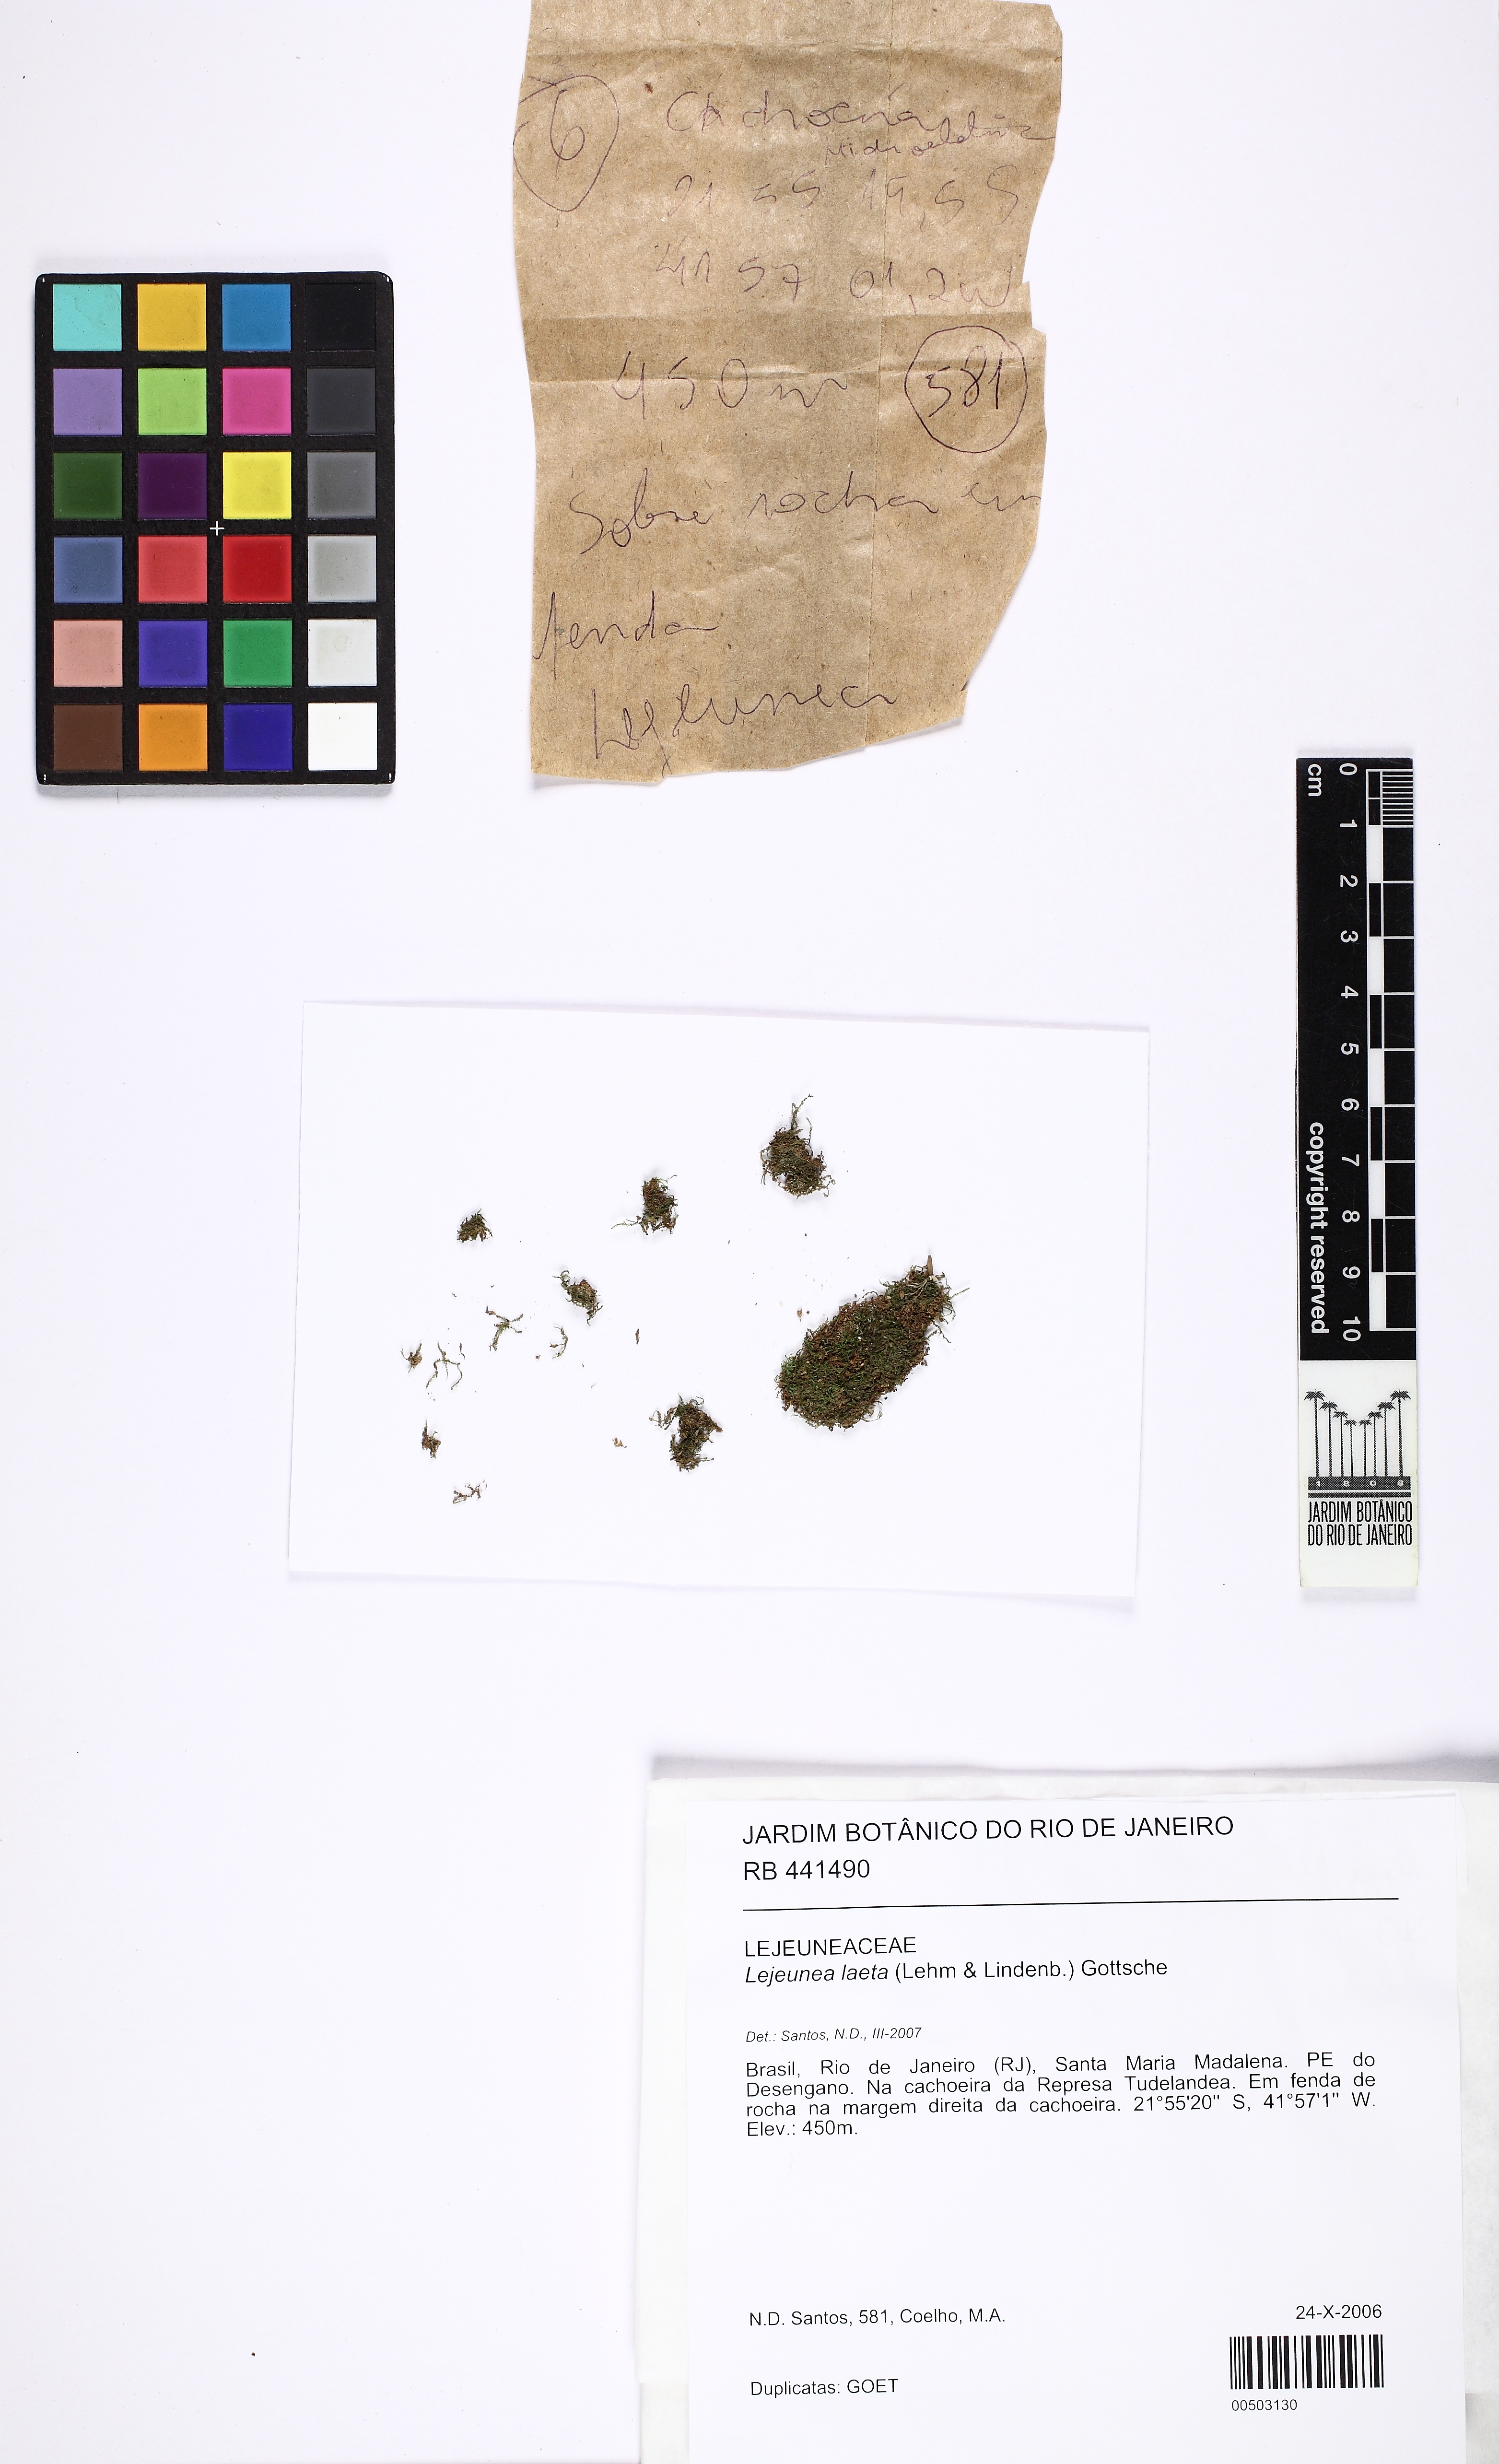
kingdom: Plantae
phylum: Marchantiophyta
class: Jungermanniopsida
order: Porellales
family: Lejeuneaceae
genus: Lejeunea
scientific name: Lejeunea laeta
